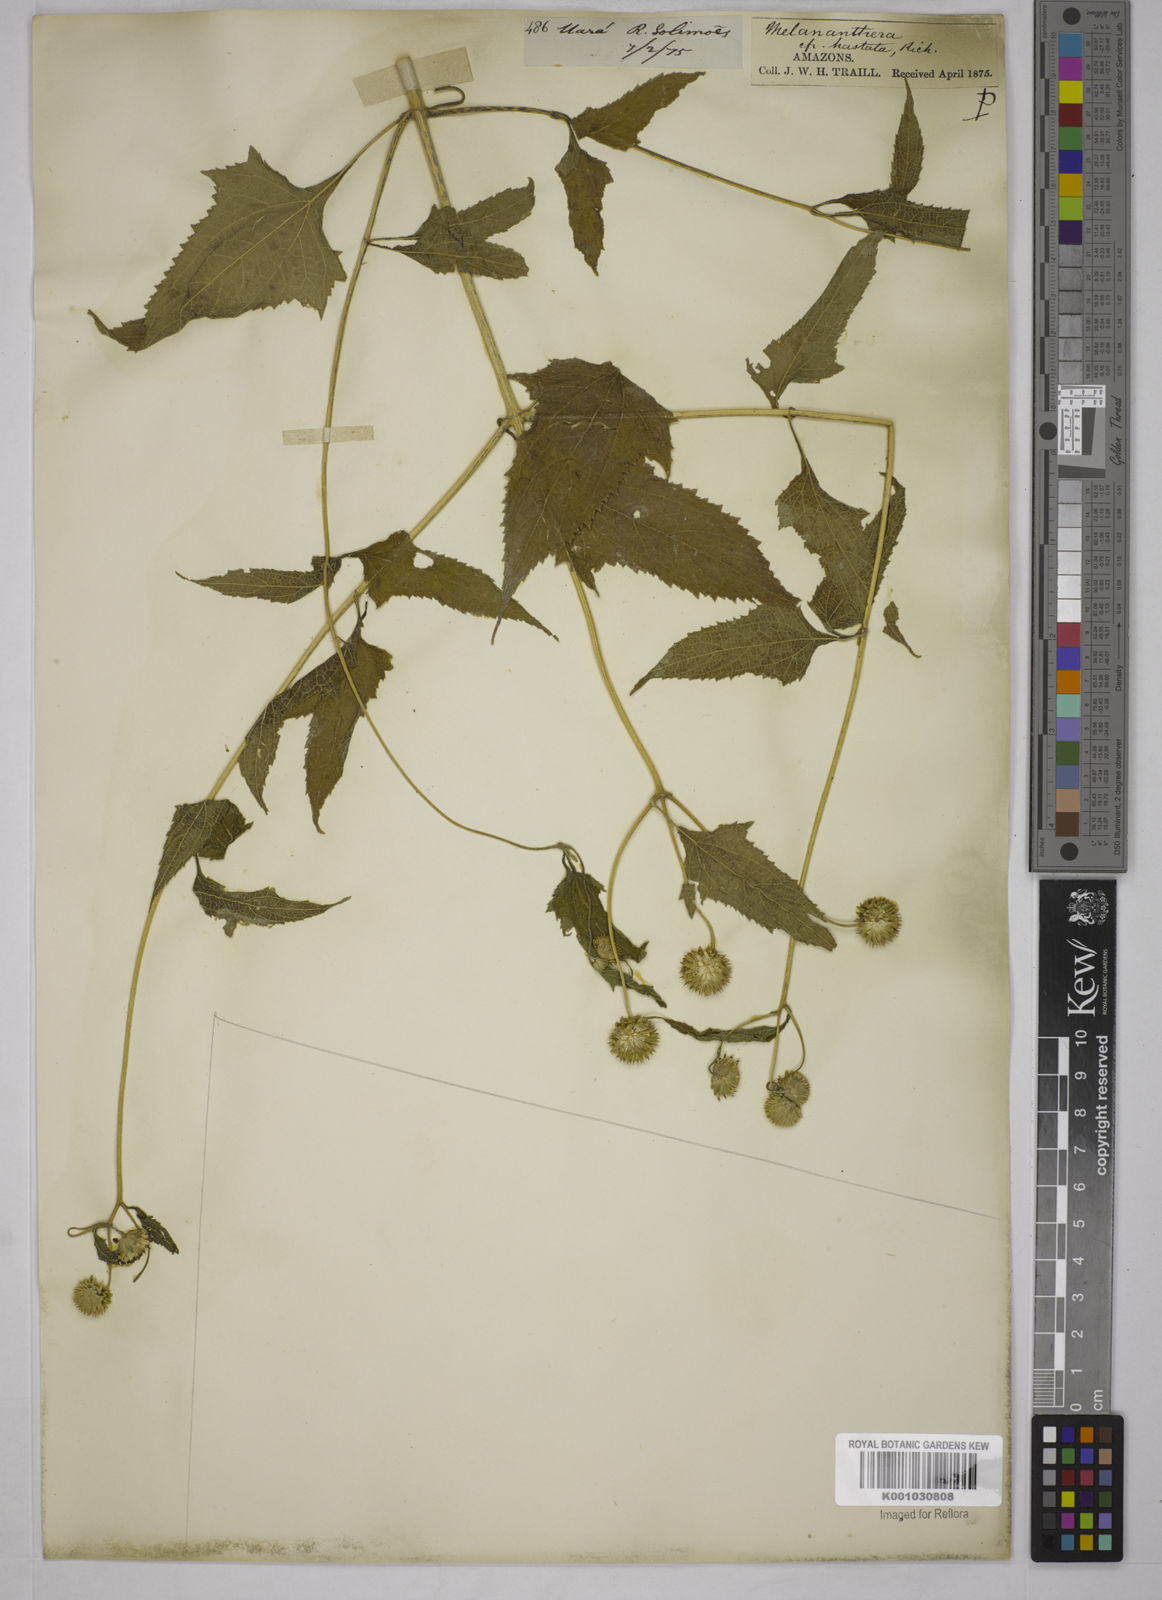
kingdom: Plantae
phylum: Tracheophyta
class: Magnoliopsida
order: Asterales
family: Asteraceae
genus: Echinocephalum
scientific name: Echinocephalum latifolium
